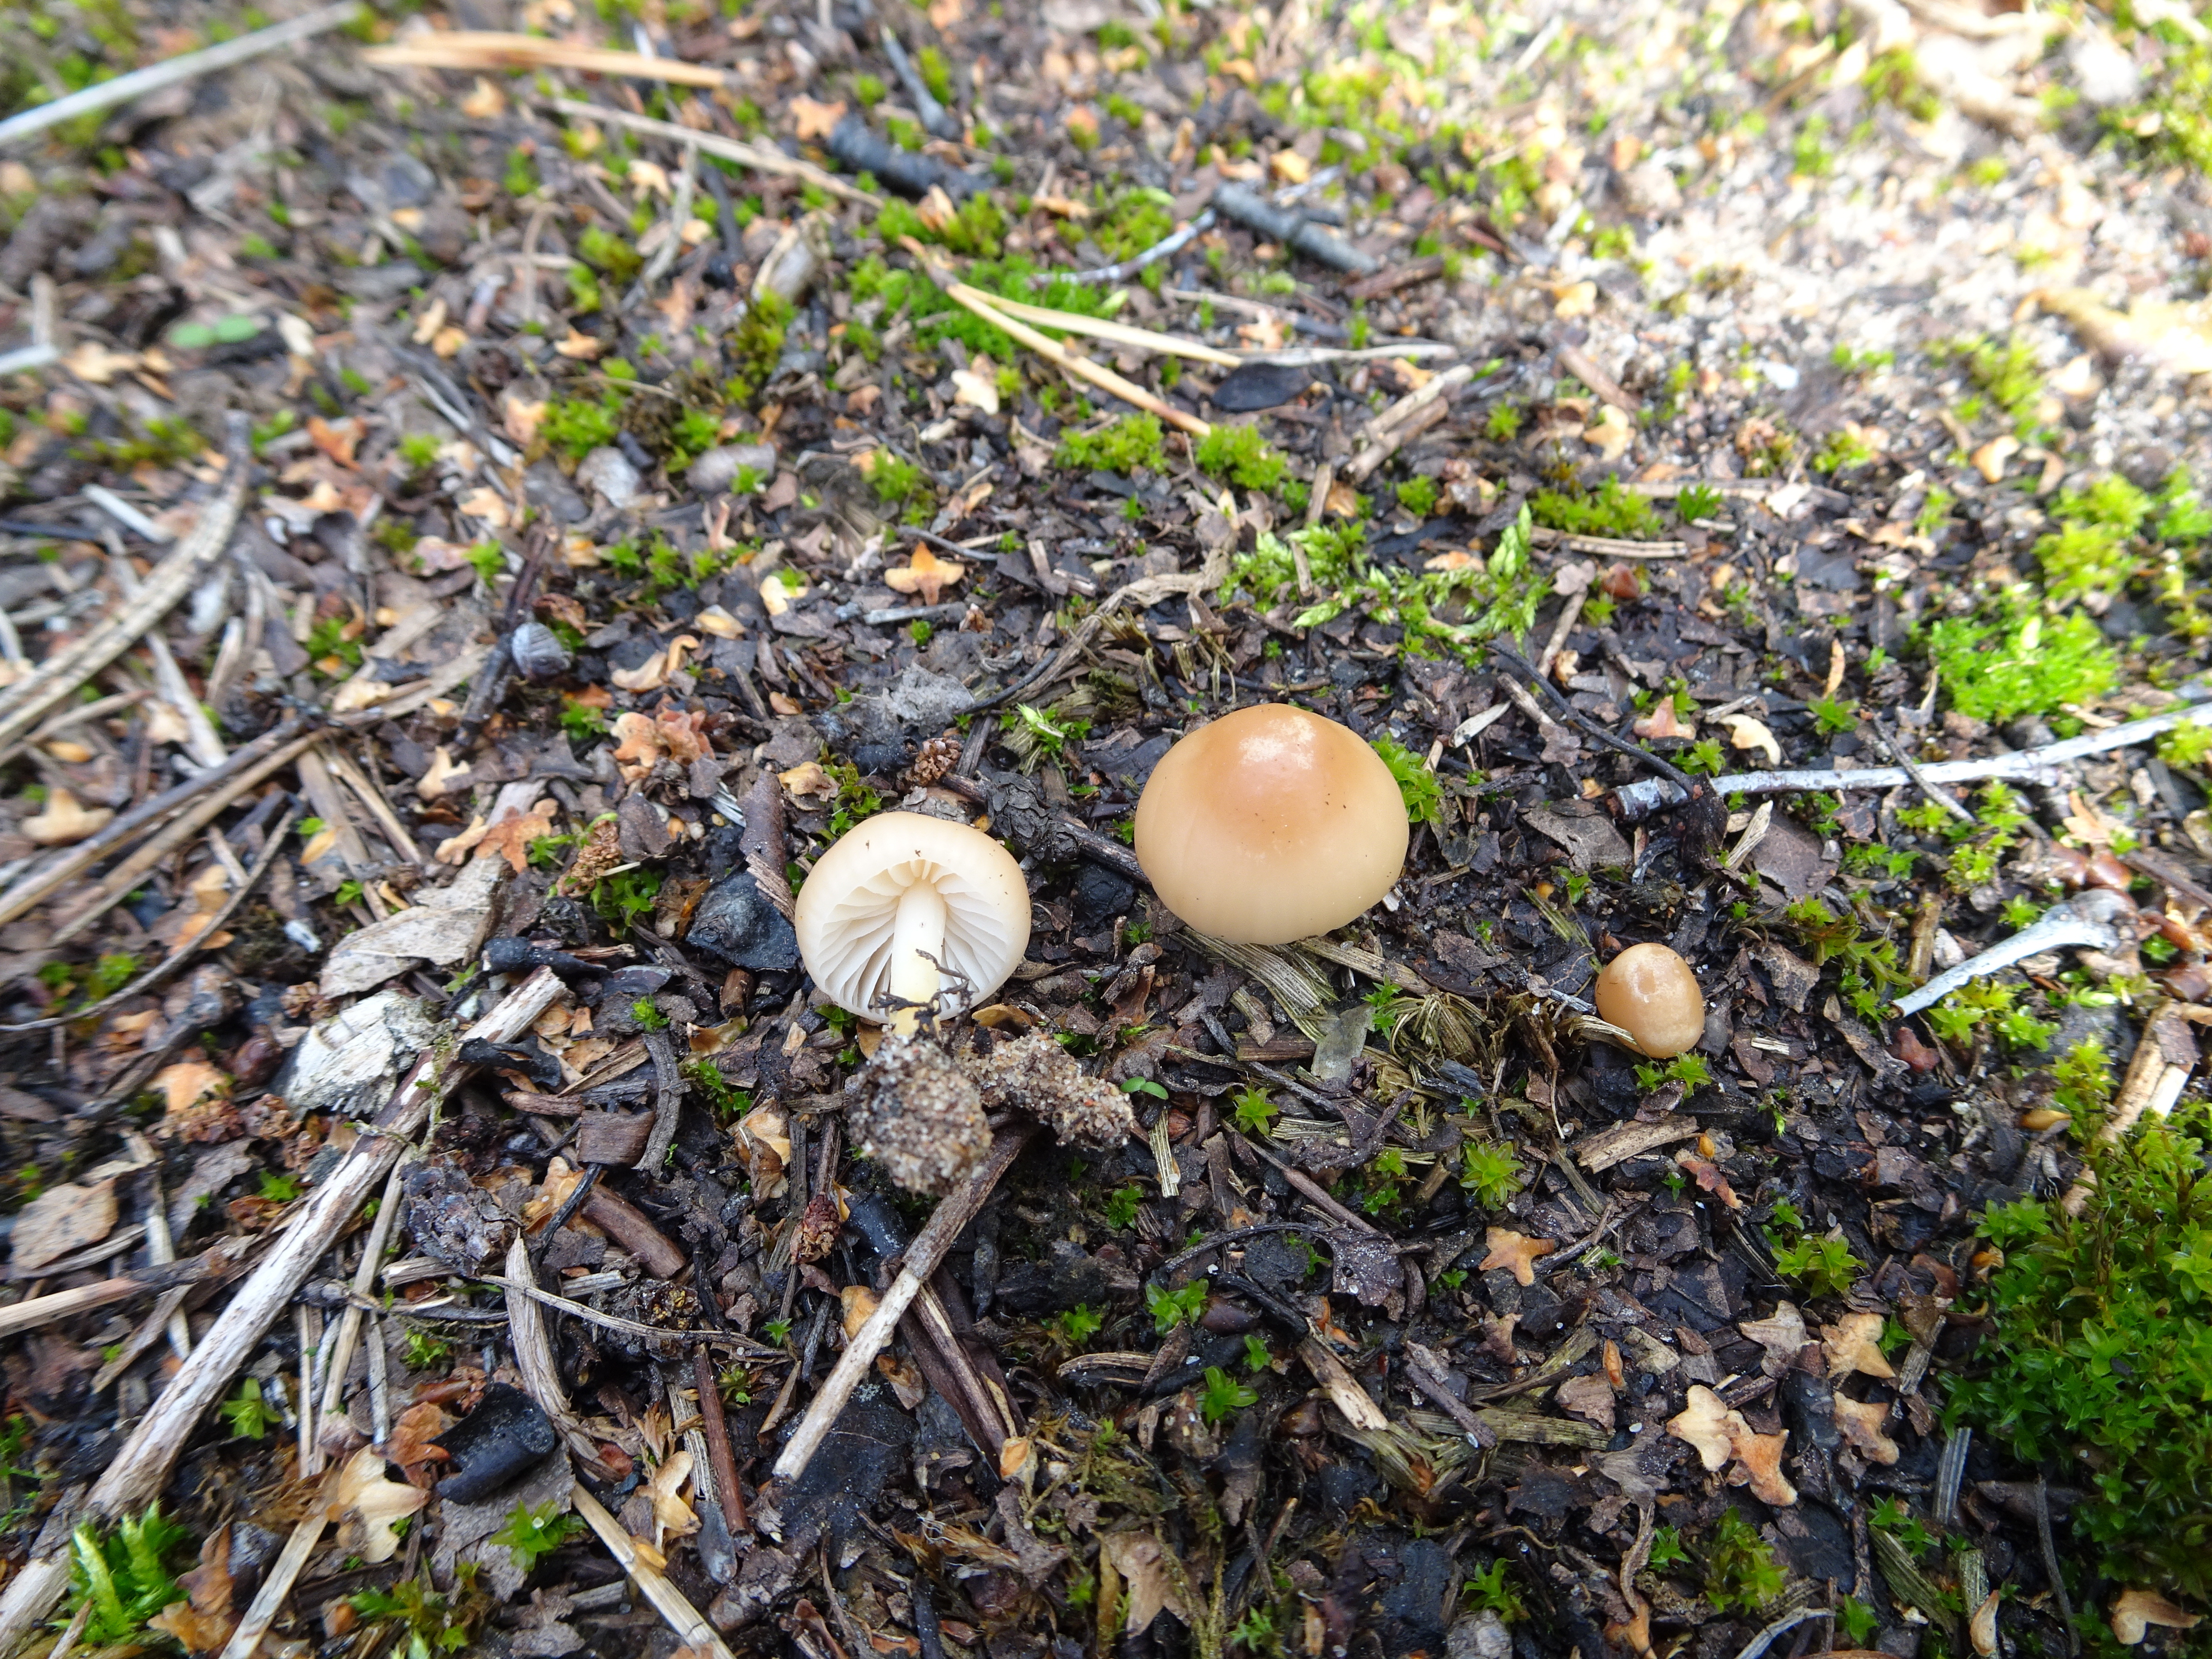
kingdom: Fungi
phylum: Basidiomycota
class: Agaricomycetes
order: Agaricales
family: Mycenaceae
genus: Mycena
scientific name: Mycena
